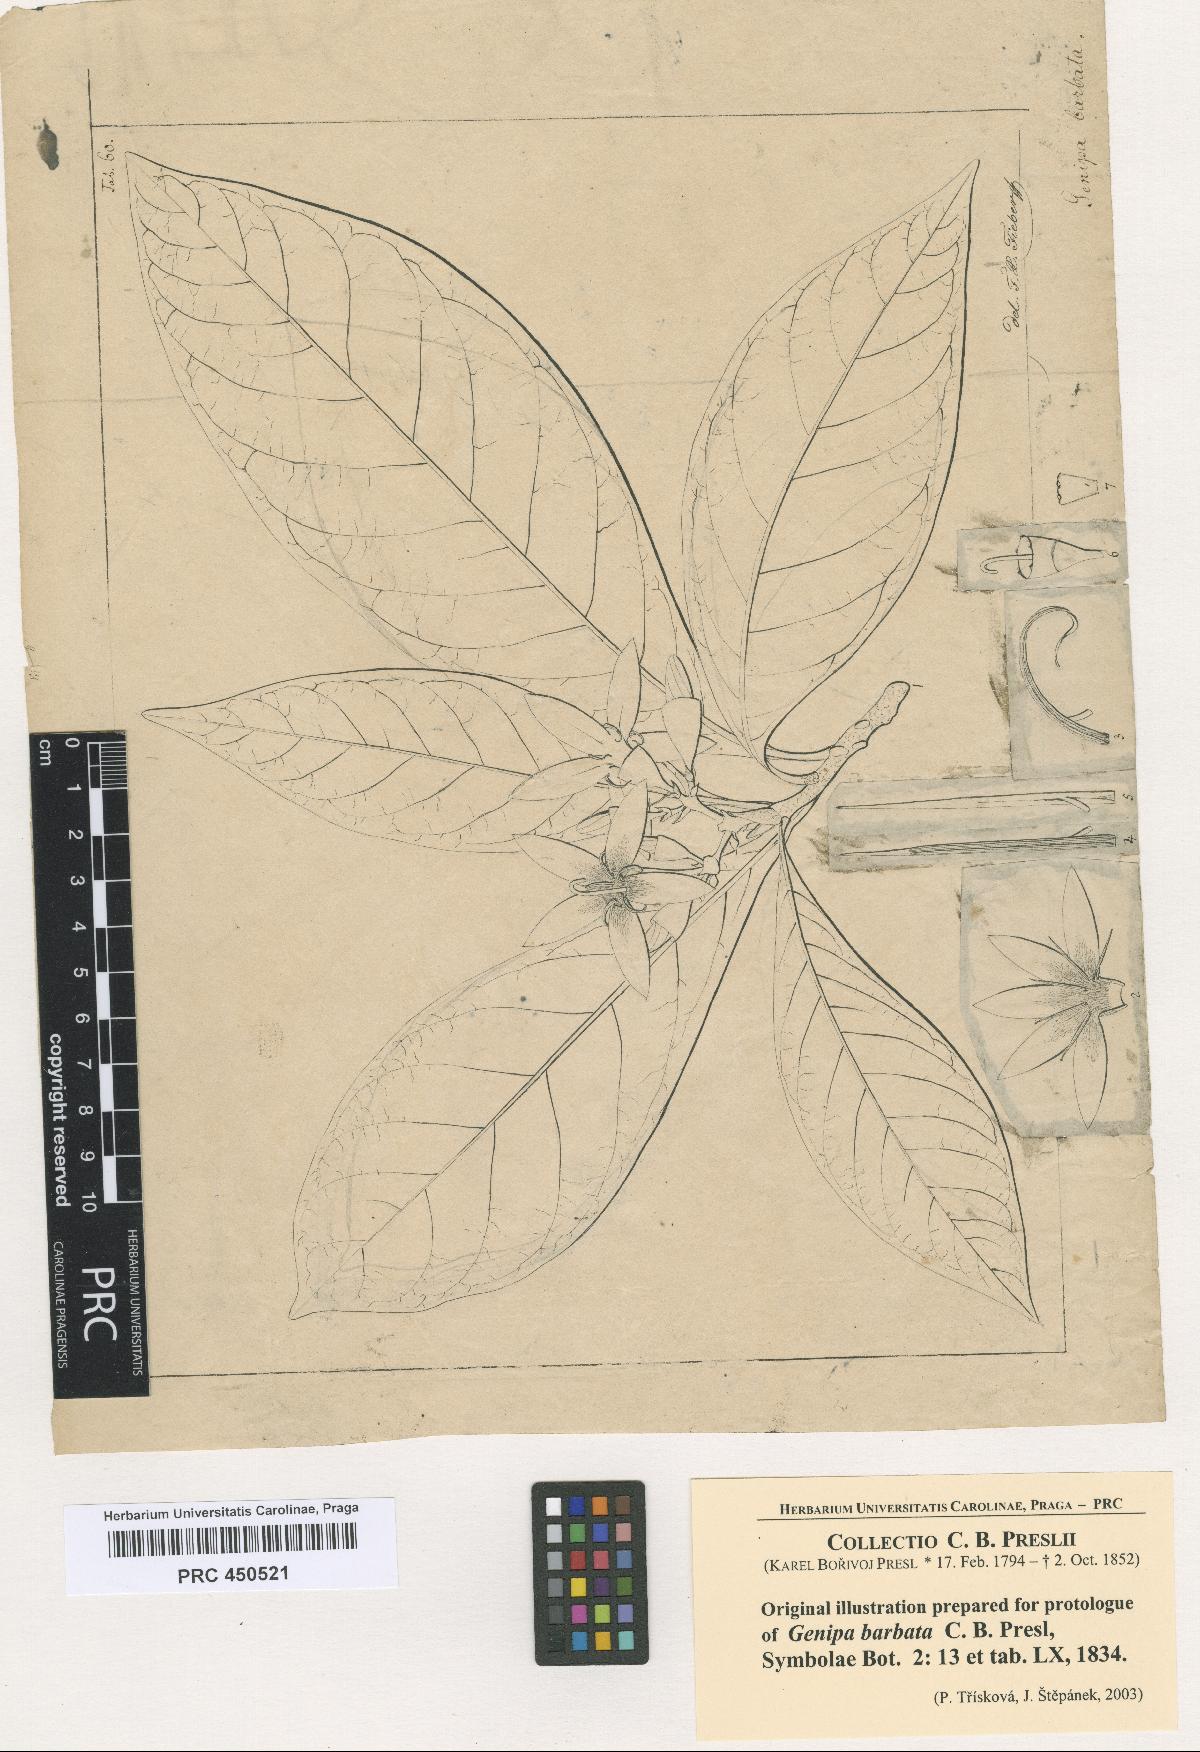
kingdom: Plantae
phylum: Tracheophyta
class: Magnoliopsida
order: Gentianales
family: Rubiaceae
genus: Genipa
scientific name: Genipa americana
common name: Genipap
